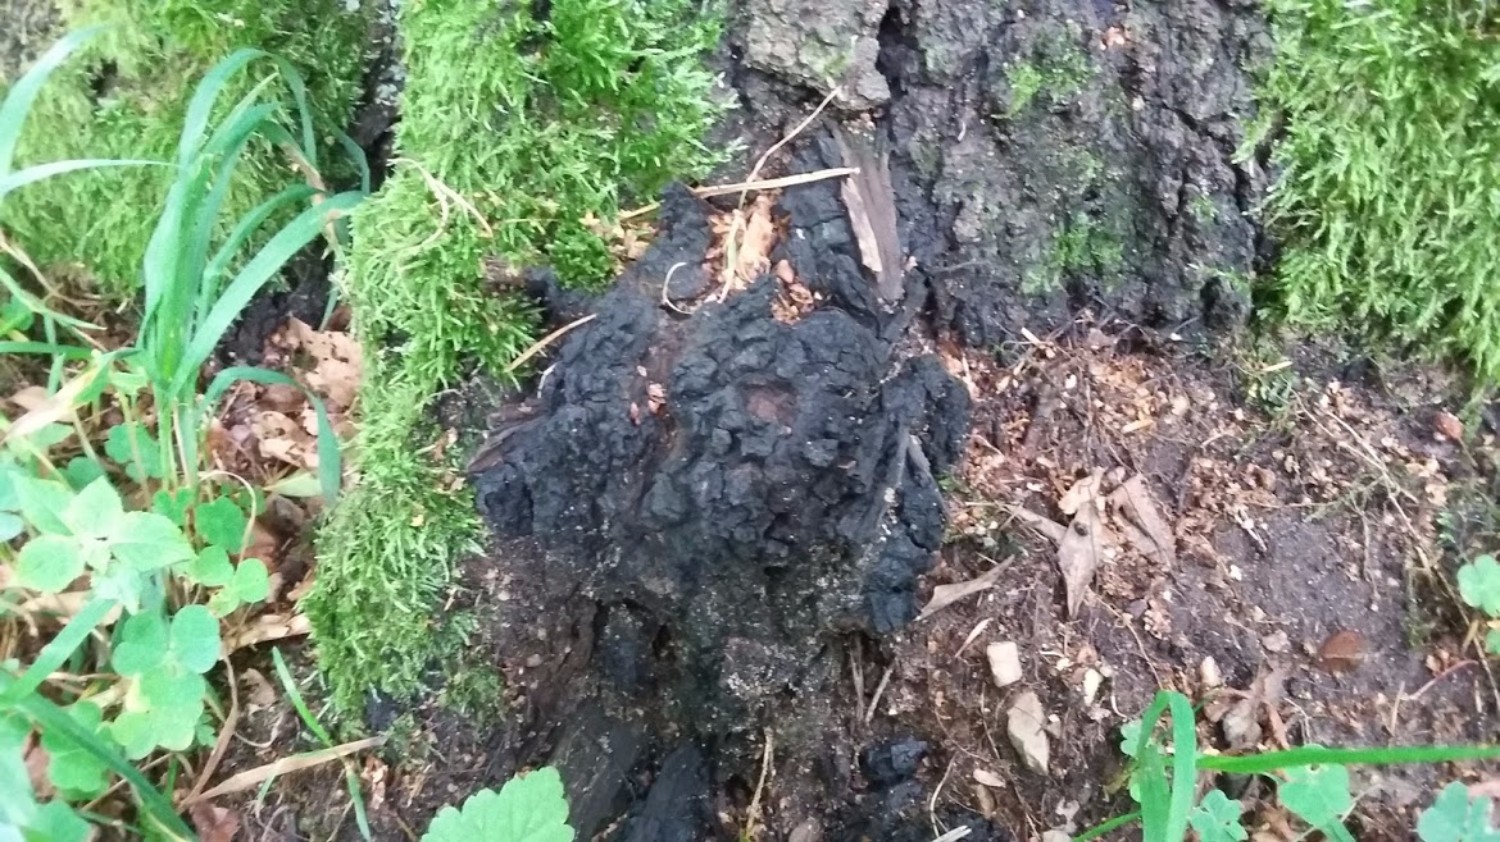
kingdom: Fungi
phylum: Basidiomycota
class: Agaricomycetes
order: Hymenochaetales
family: Hymenochaetaceae
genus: Inonotus
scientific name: Inonotus obliquus
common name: birke-spejlporesvamp
